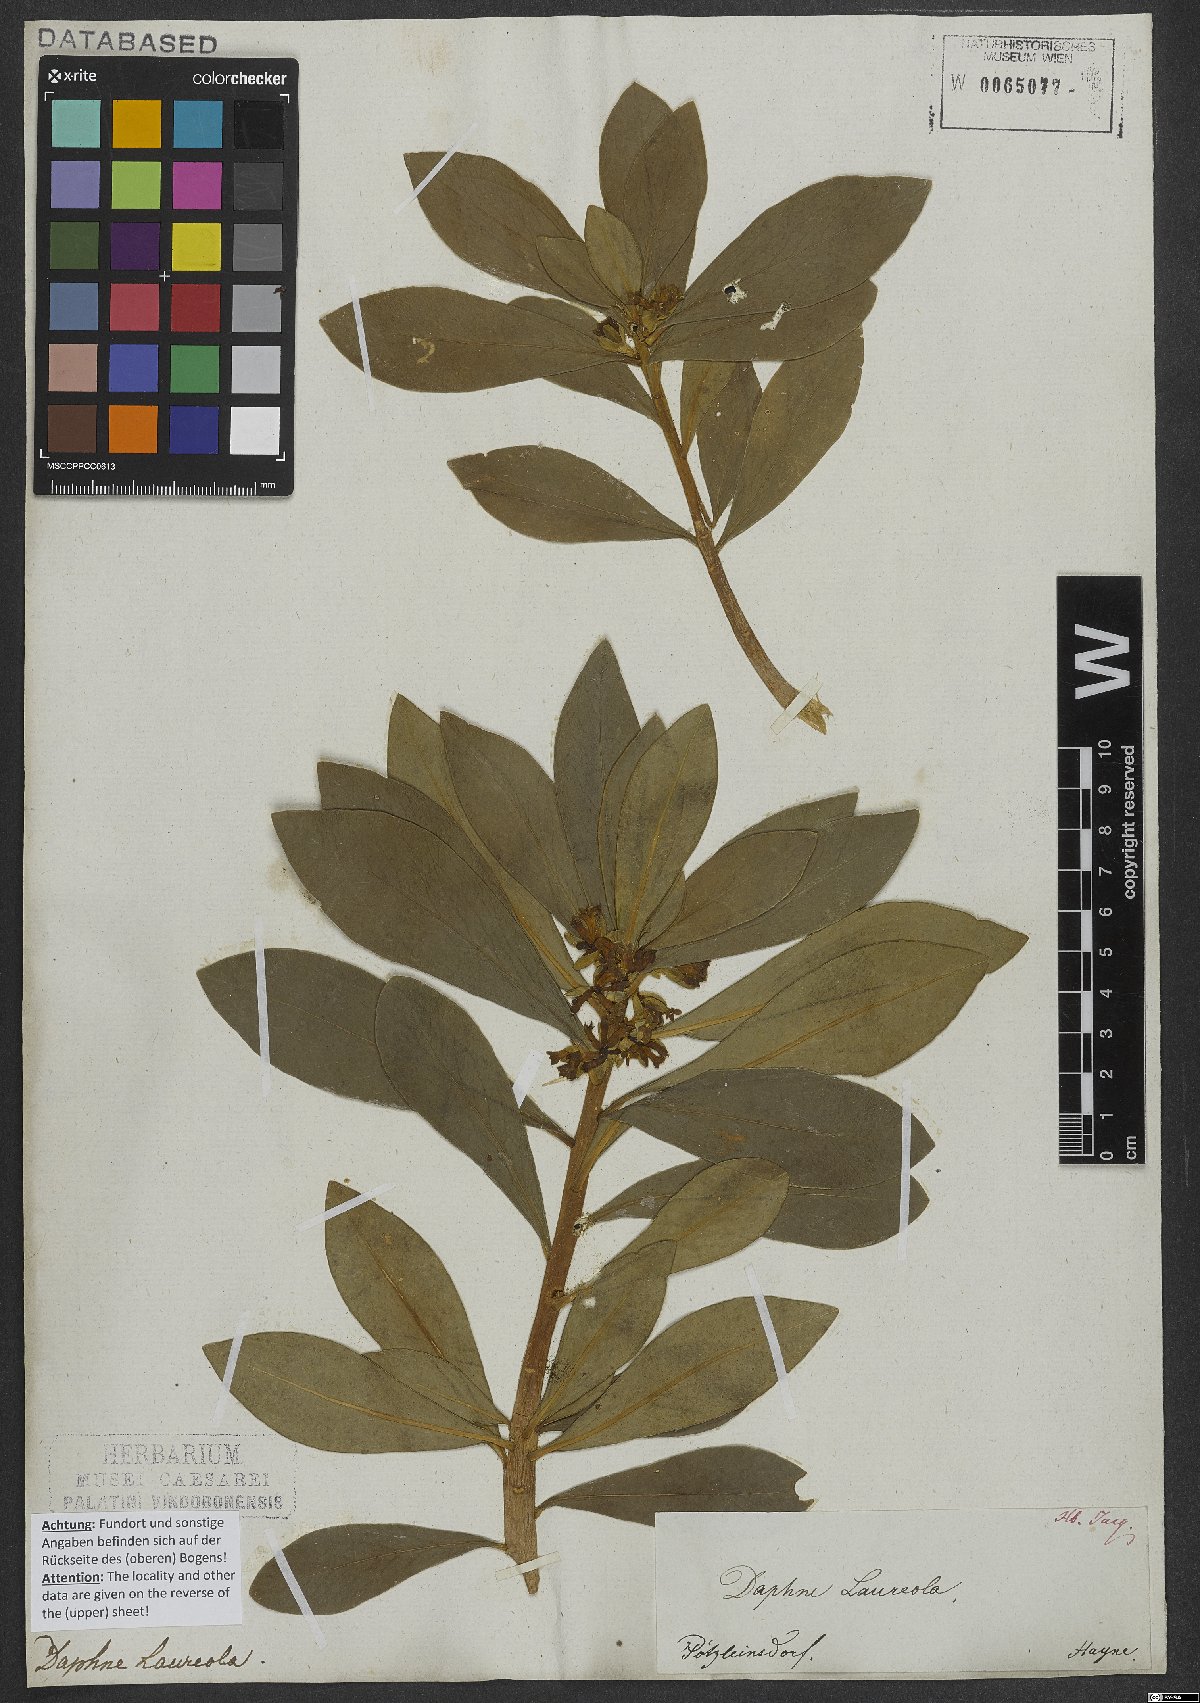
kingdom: Plantae
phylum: Tracheophyta
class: Magnoliopsida
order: Malvales
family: Thymelaeaceae
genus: Daphne
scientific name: Daphne laureola
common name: Spurge-laurel
